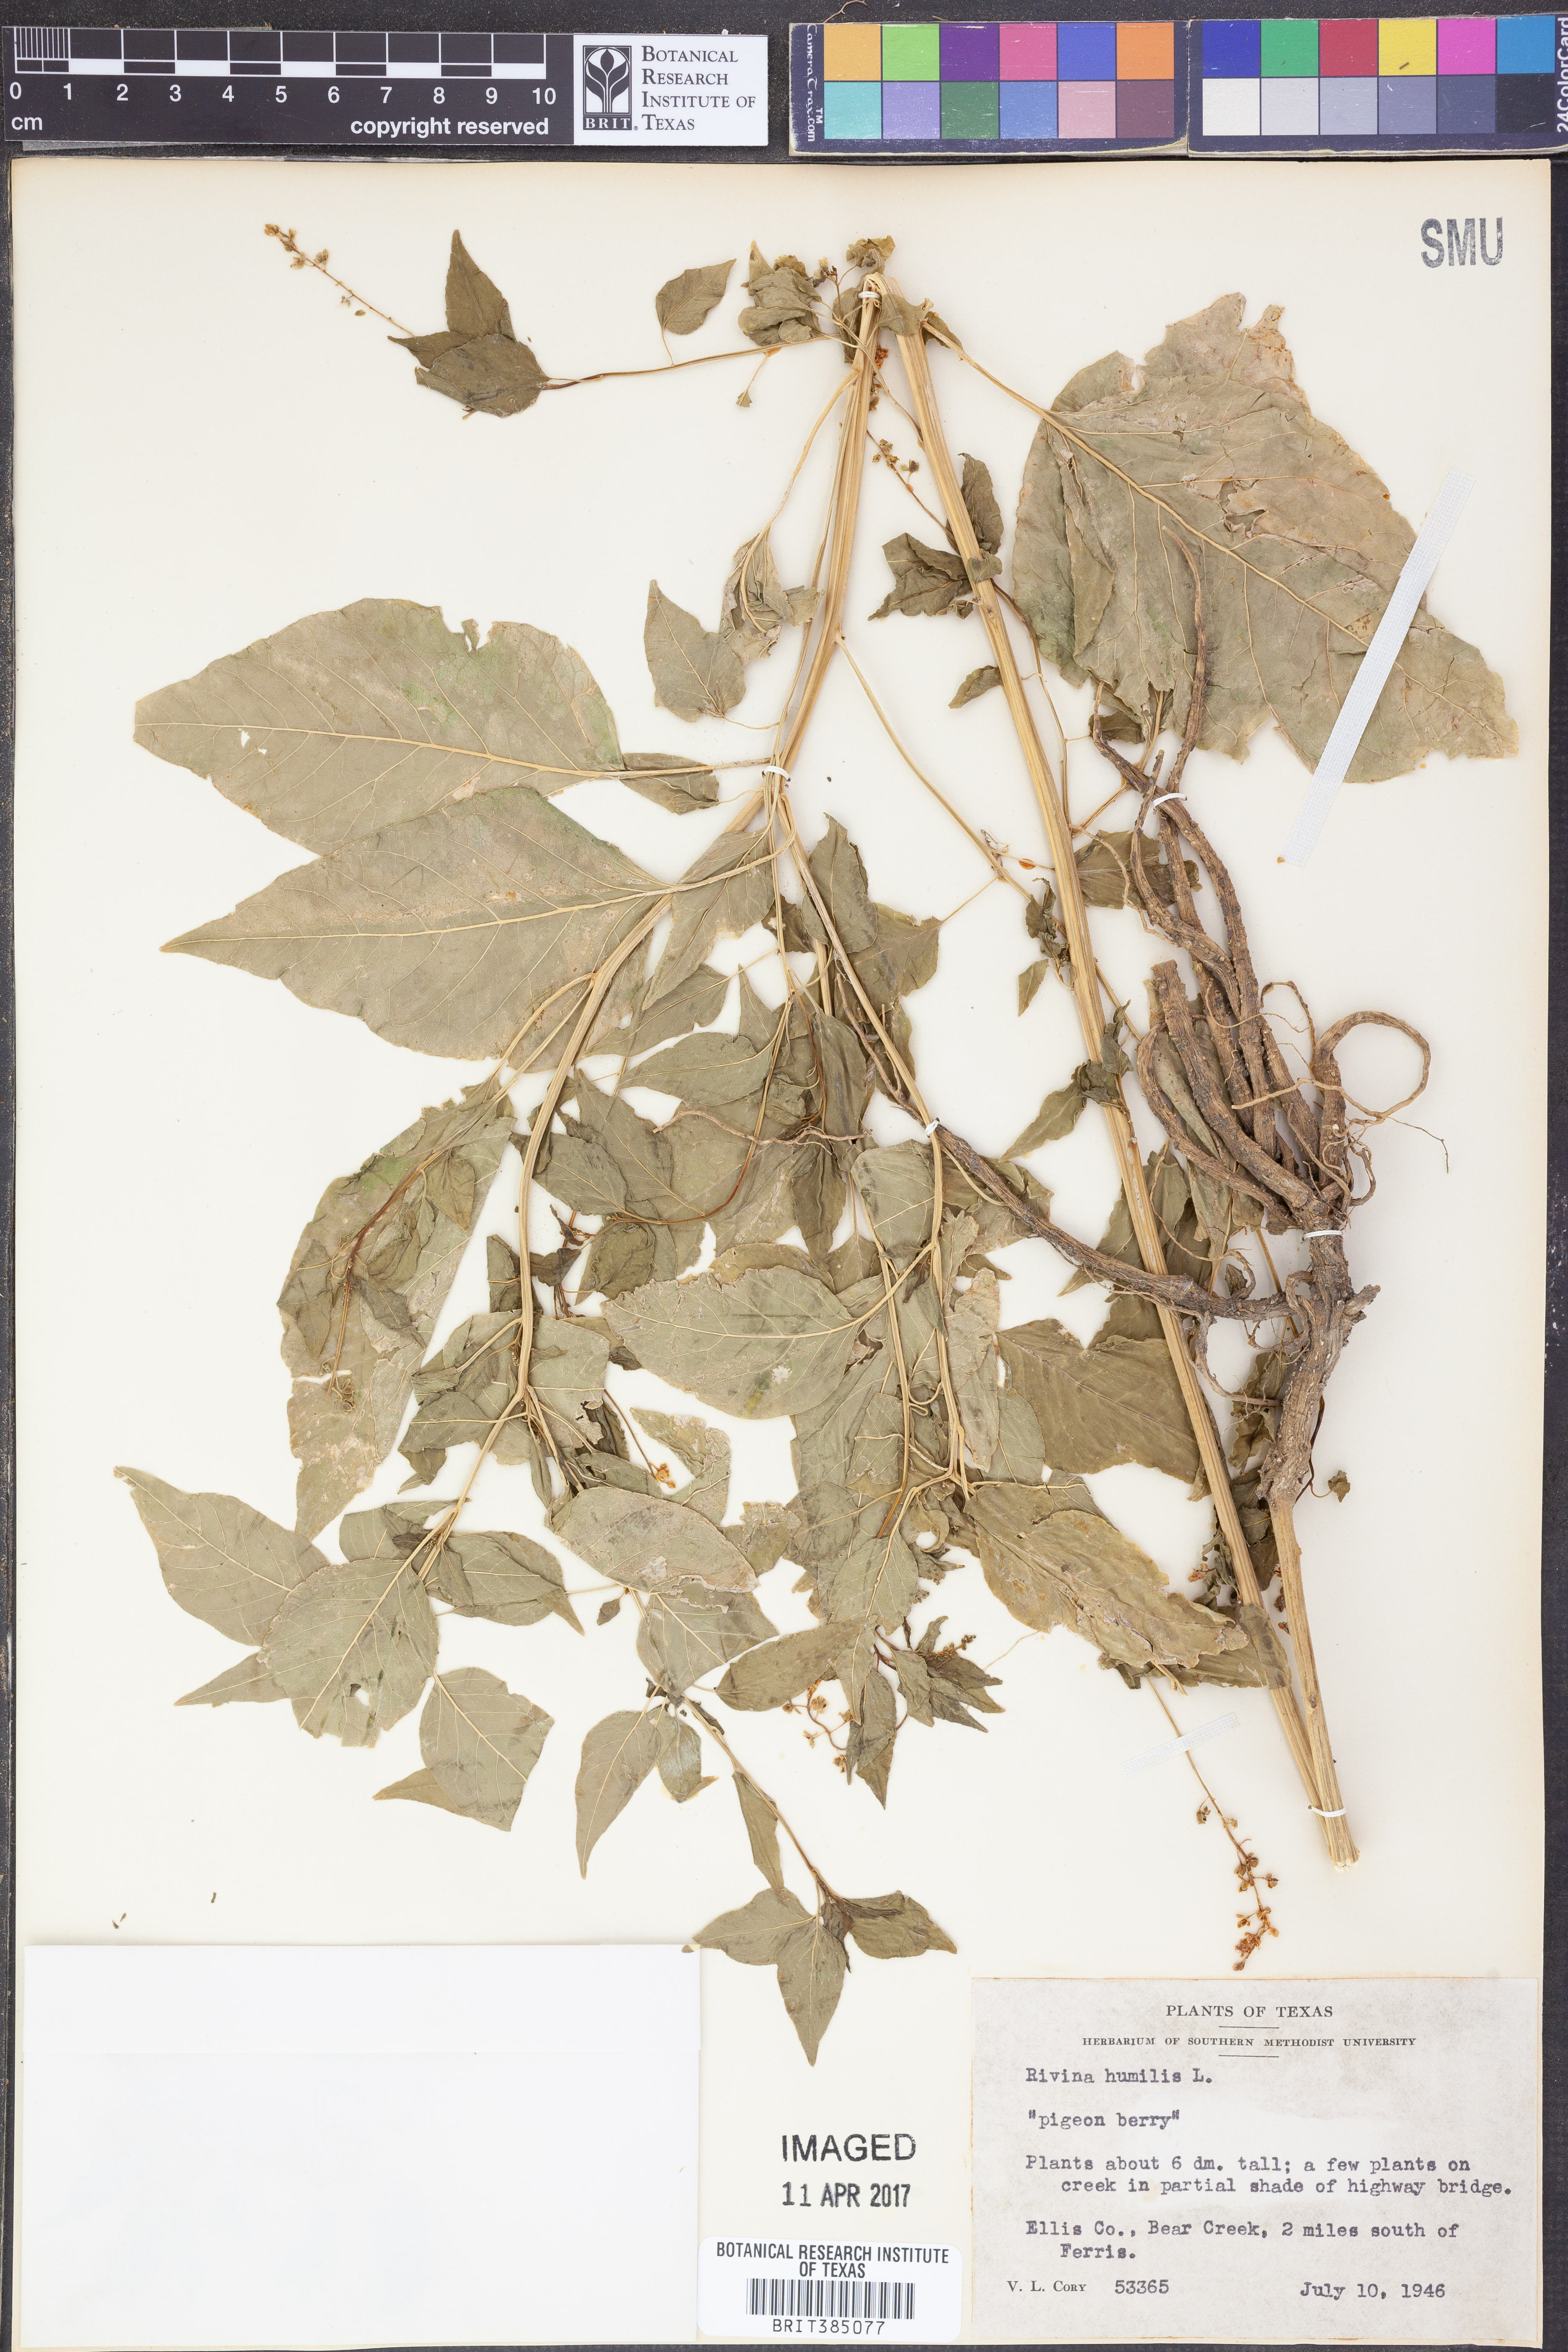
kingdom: Plantae
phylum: Tracheophyta
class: Magnoliopsida
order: Caryophyllales
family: Phytolaccaceae
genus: Rivina
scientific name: Rivina humilis
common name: Rougeplant
